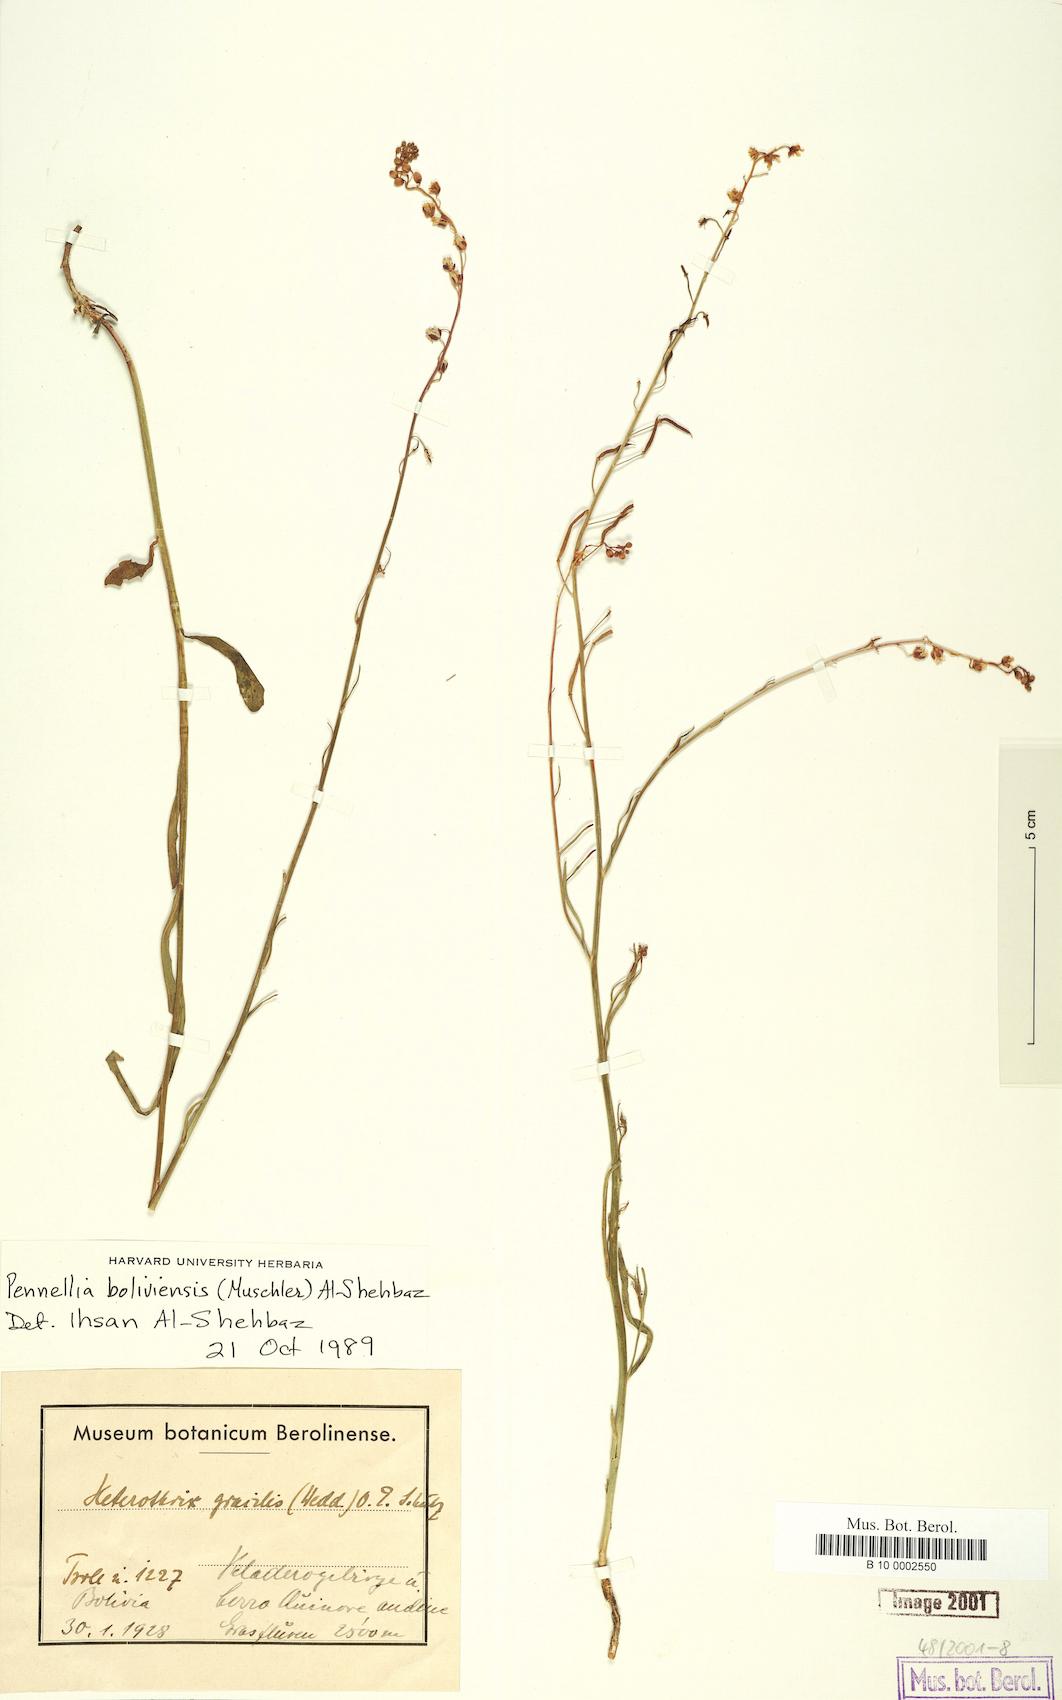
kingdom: Plantae
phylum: Tracheophyta
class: Magnoliopsida
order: Brassicales
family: Brassicaceae
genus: Pennellia
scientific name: Pennellia boliviensis
